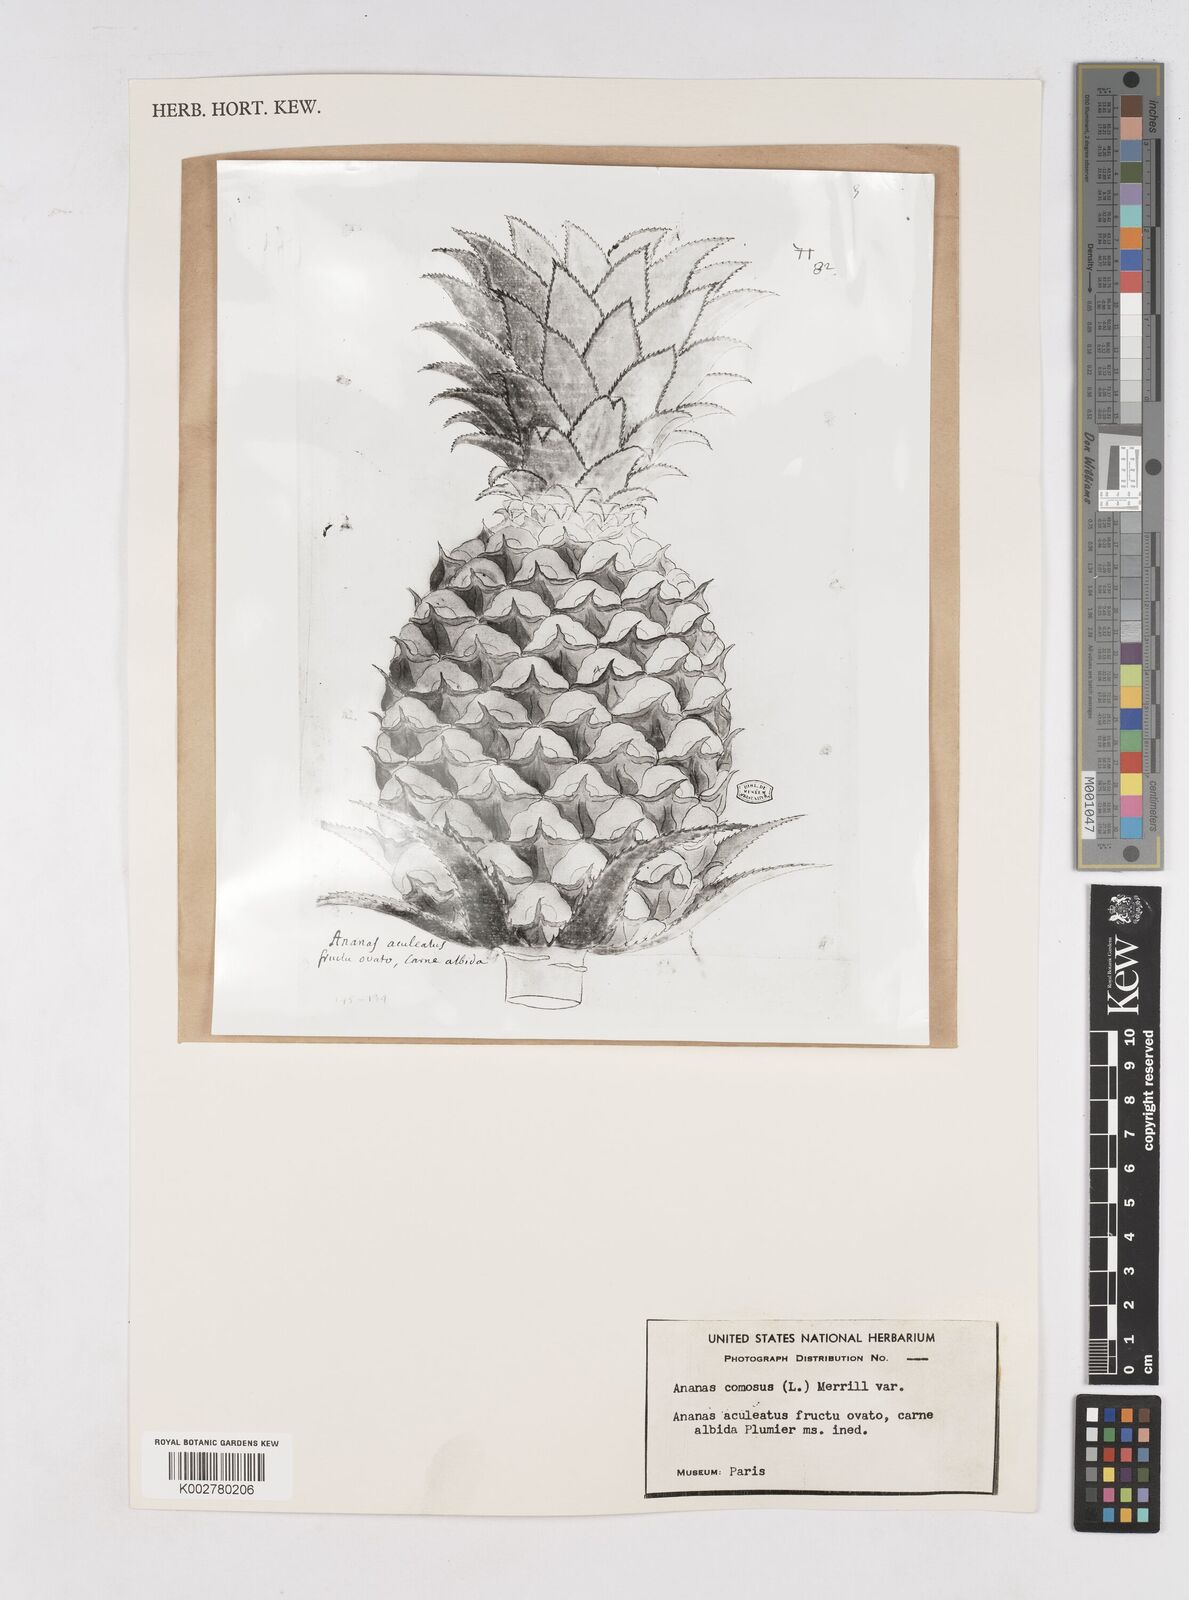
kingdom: Plantae
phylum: Tracheophyta
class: Liliopsida
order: Poales
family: Bromeliaceae
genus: Ananas
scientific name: Ananas
